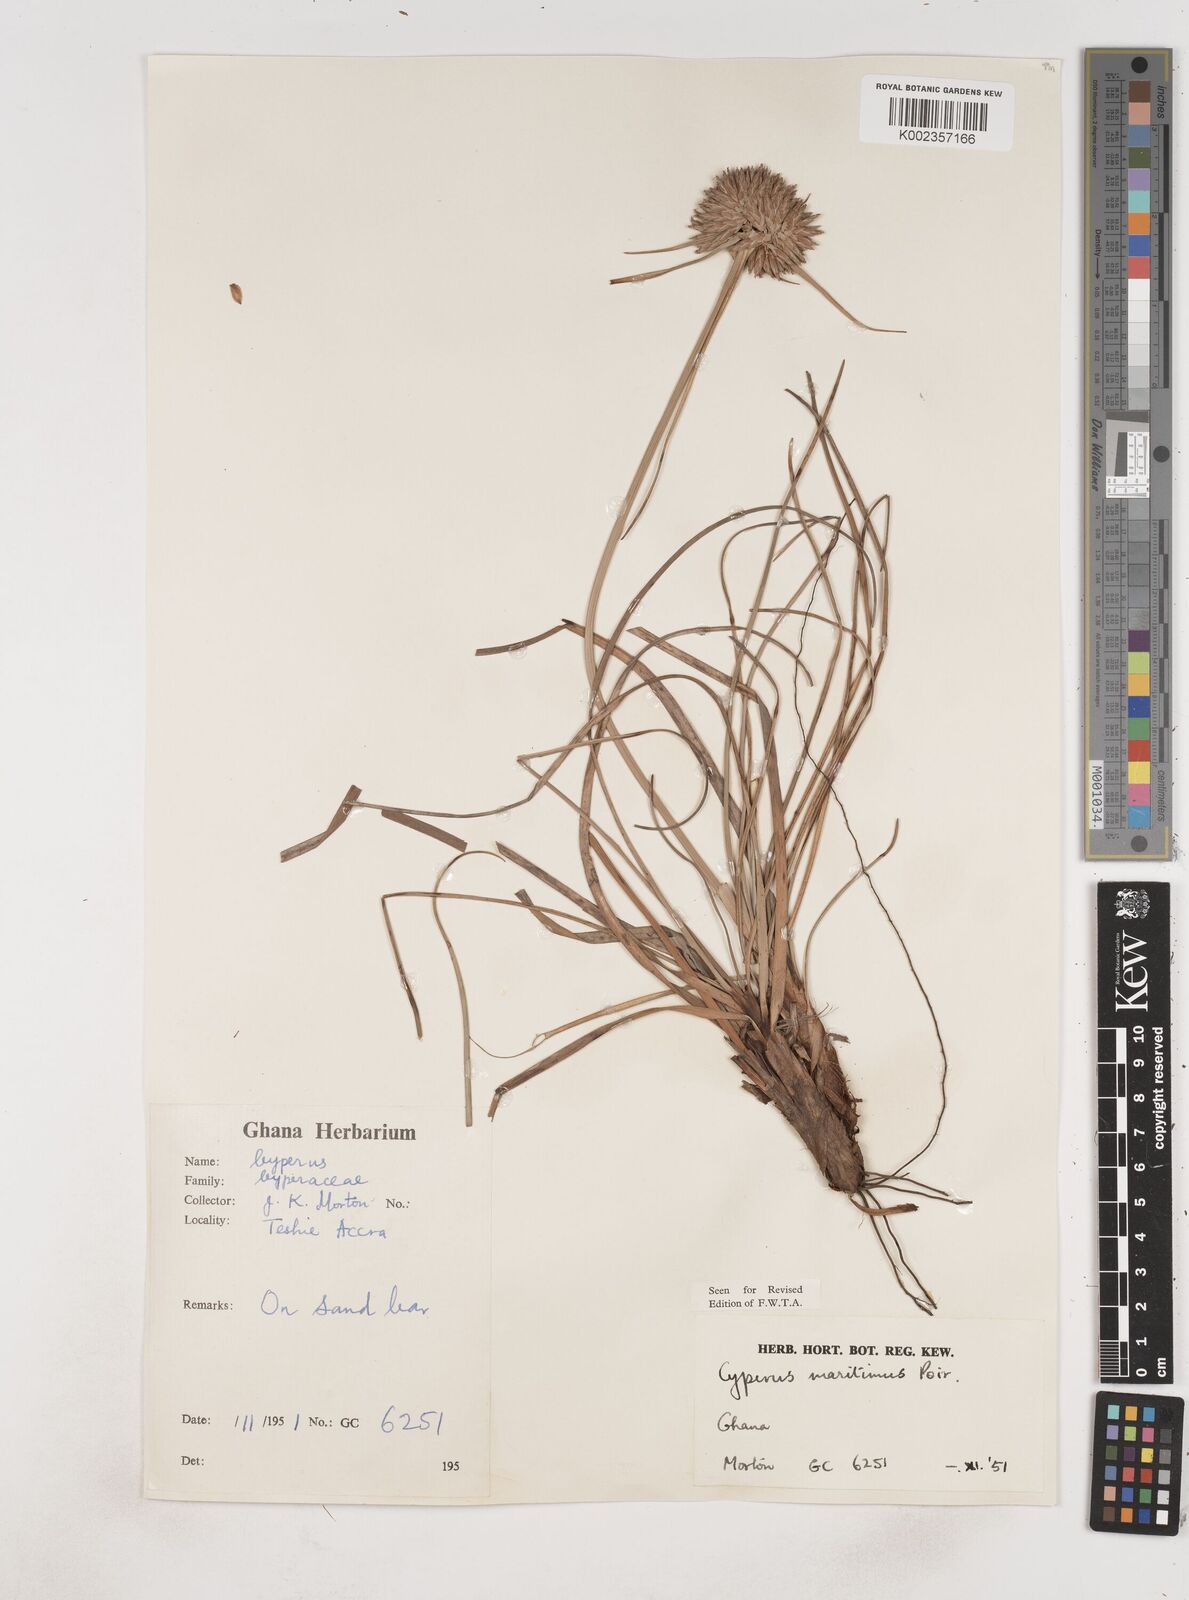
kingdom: Plantae
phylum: Tracheophyta
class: Liliopsida
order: Poales
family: Cyperaceae
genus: Cyperus
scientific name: Cyperus crassipes
